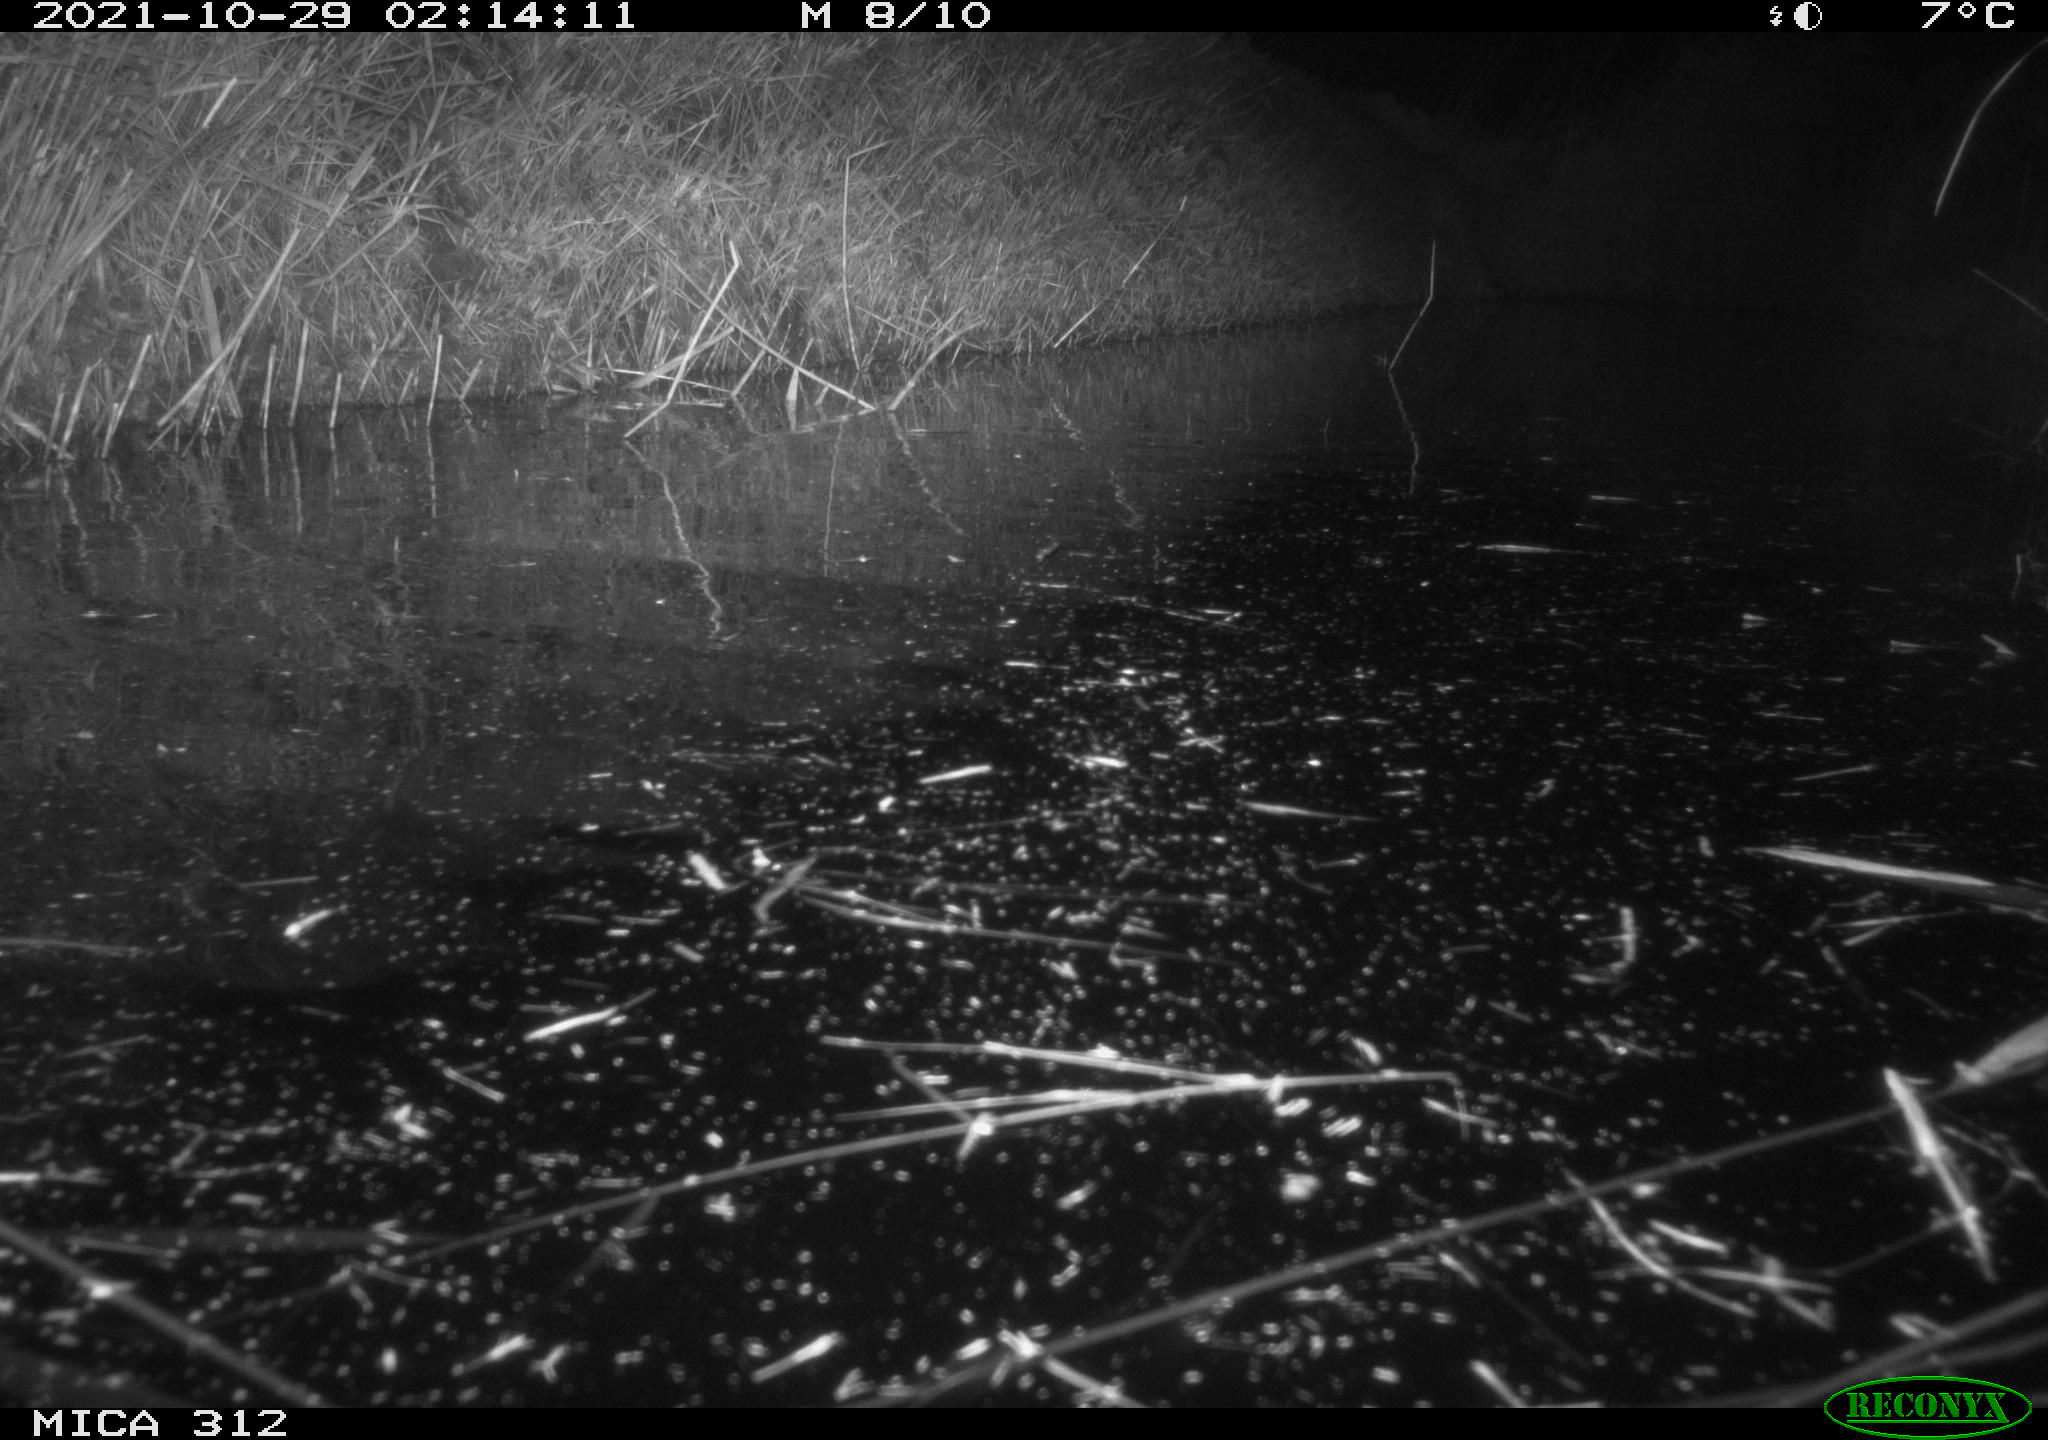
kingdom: Animalia
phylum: Chordata
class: Mammalia
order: Rodentia
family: Muridae
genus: Rattus
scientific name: Rattus norvegicus
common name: Brown rat
